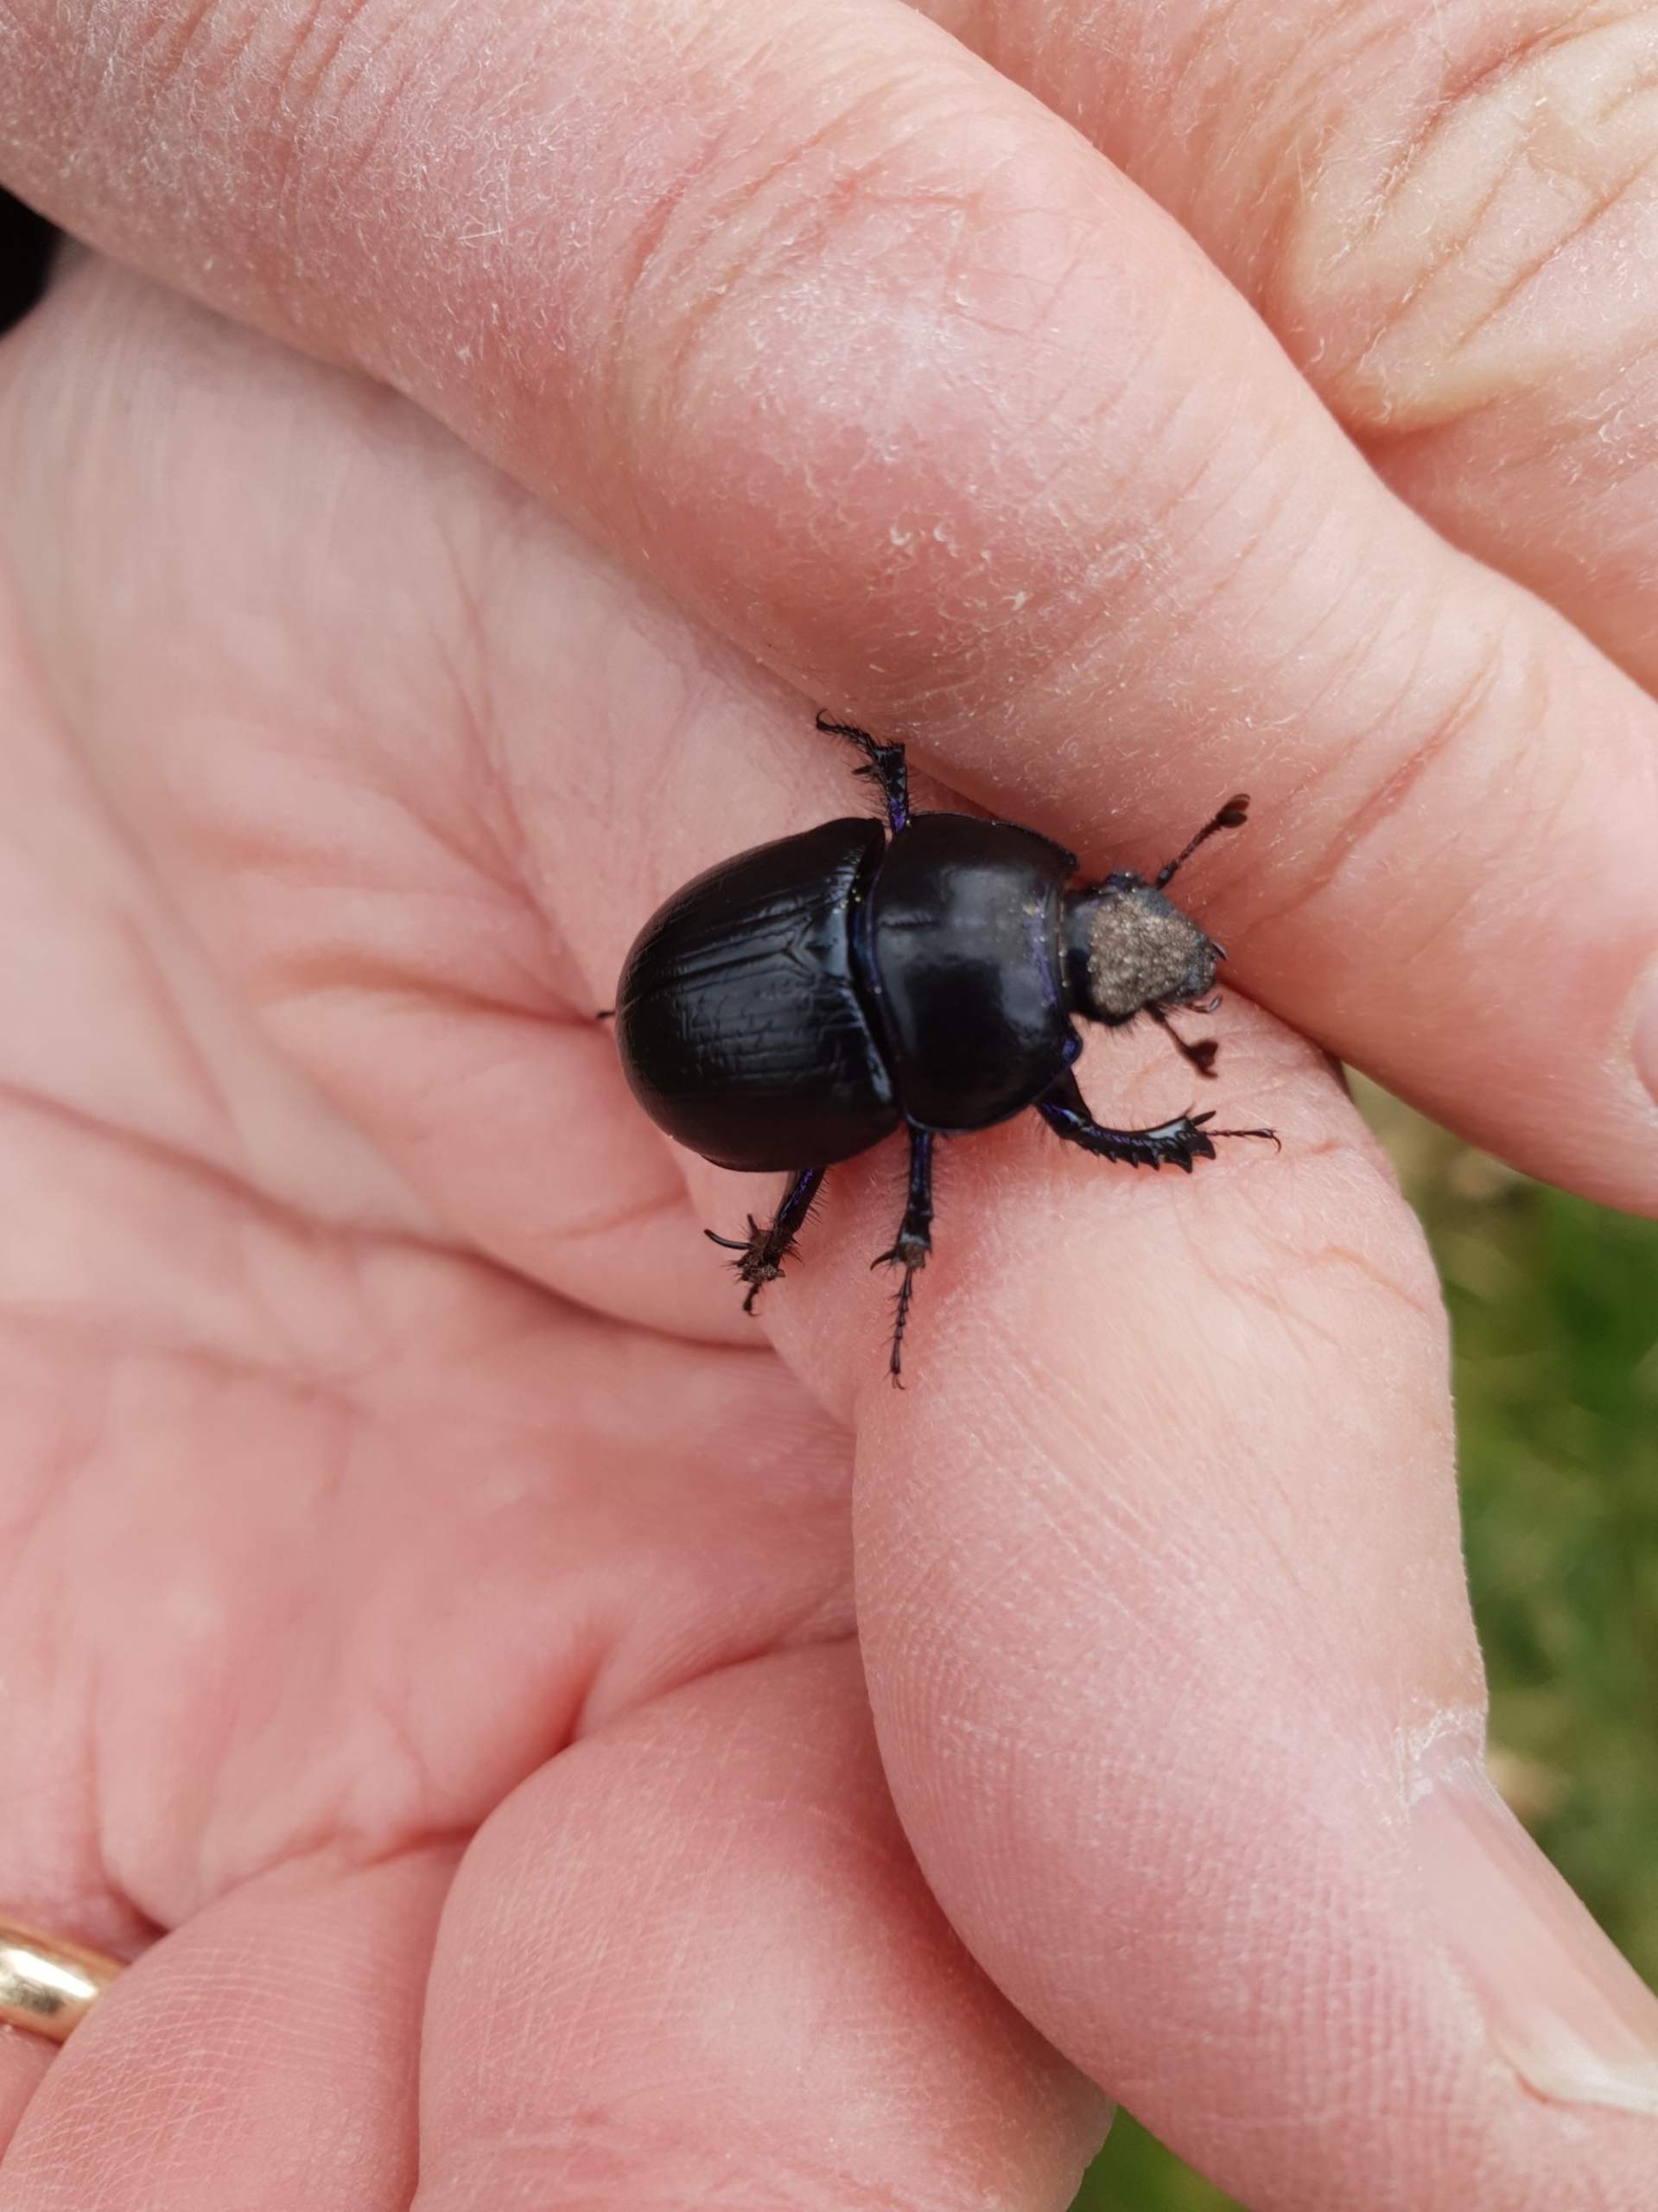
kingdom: Animalia
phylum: Arthropoda
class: Insecta
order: Coleoptera
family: Geotrupidae
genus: Anoplotrupes
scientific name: Anoplotrupes stercorosus
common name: Skovskarnbasse
